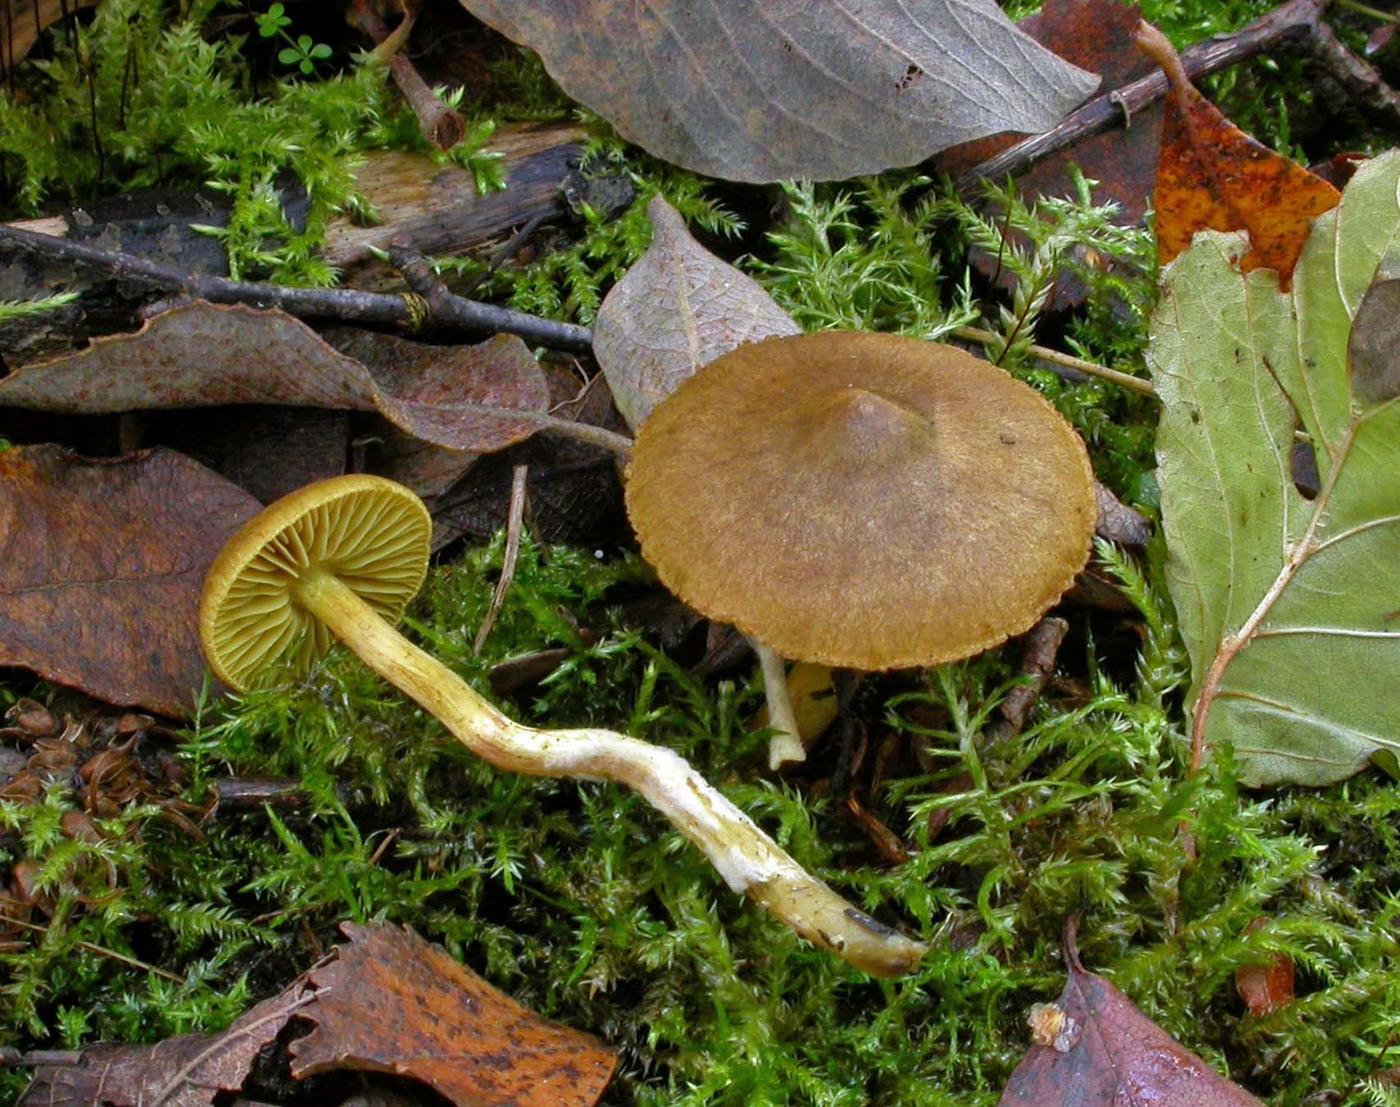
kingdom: Fungi
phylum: Basidiomycota
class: Agaricomycetes
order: Agaricales
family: Cortinariaceae
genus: Cortinarius
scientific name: Cortinarius cinnamomeoluteus
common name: kanelgul slørhat
